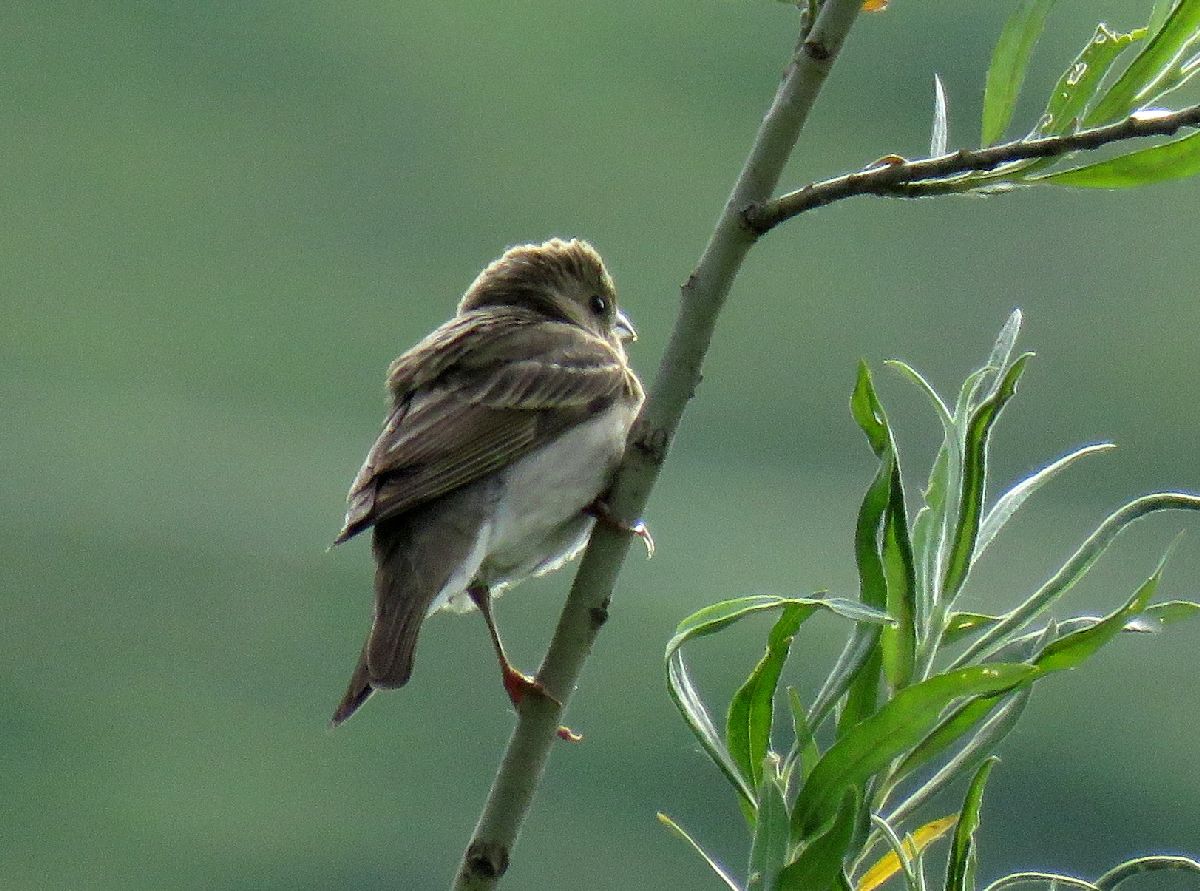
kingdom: Animalia
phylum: Chordata
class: Aves
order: Passeriformes
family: Fringillidae
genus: Carpodacus
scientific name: Carpodacus erythrinus
